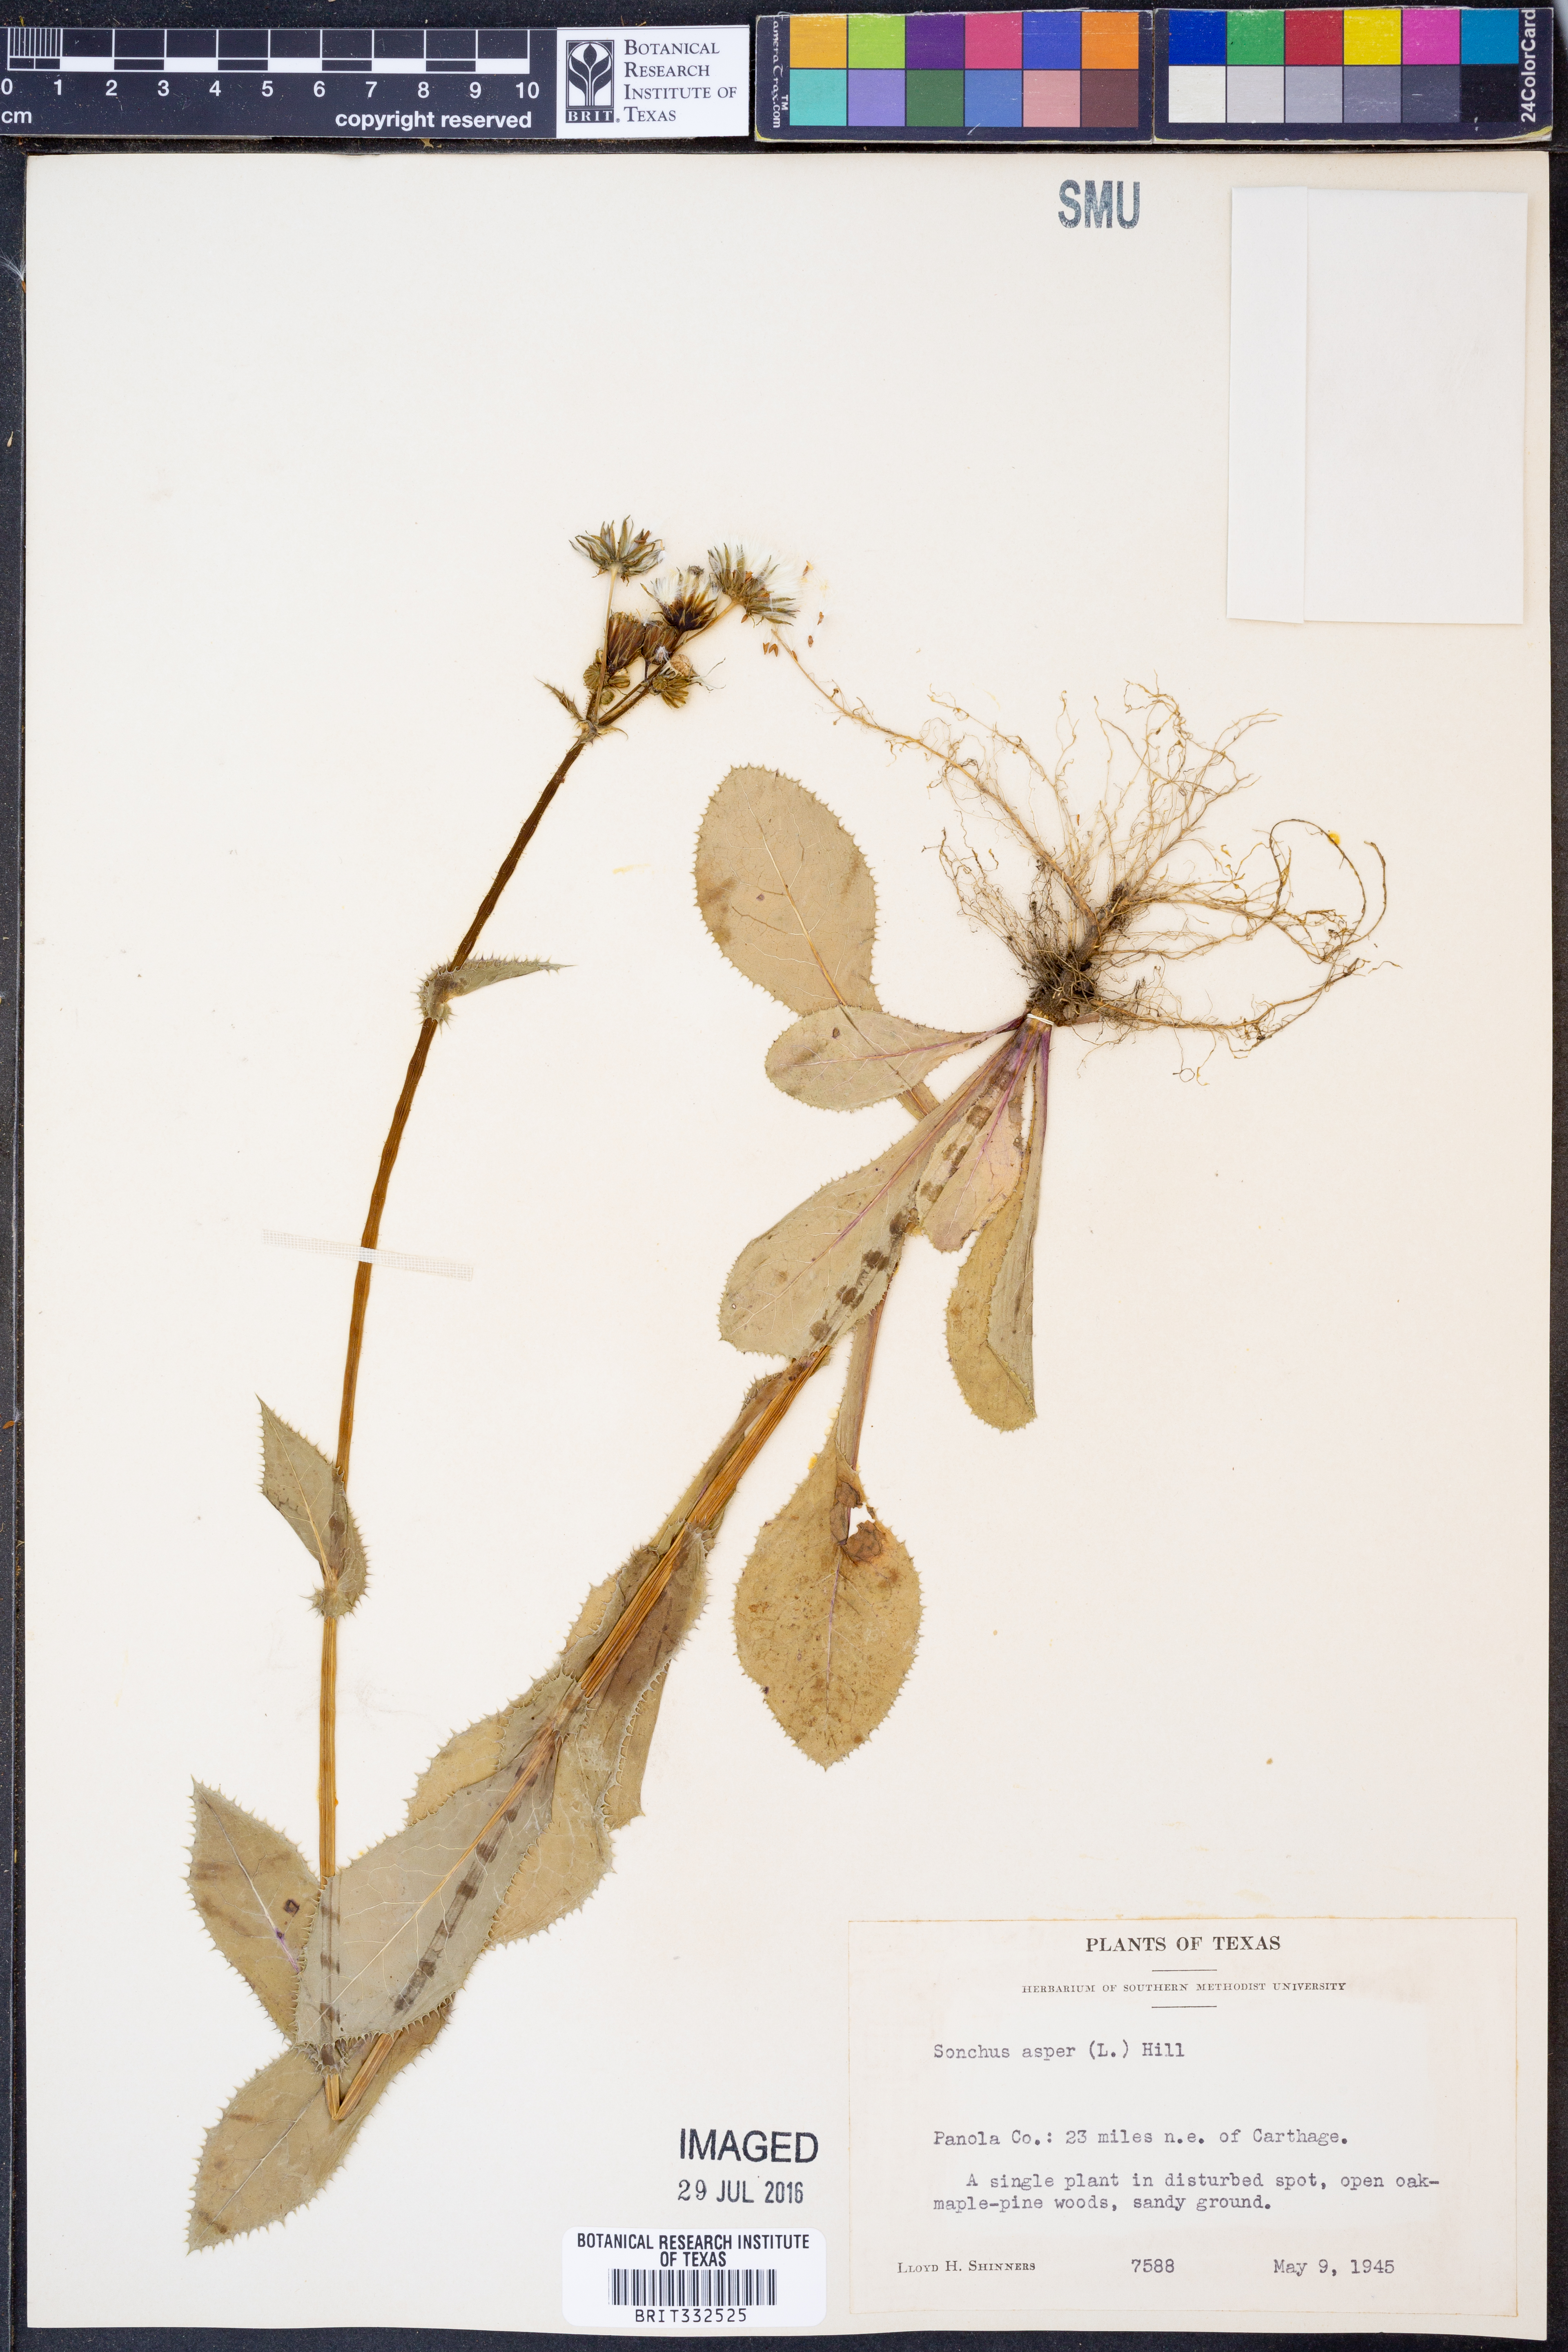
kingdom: Plantae
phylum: Tracheophyta
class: Magnoliopsida
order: Asterales
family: Asteraceae
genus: Sonchus
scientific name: Sonchus asper
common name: Prickly sow-thistle
